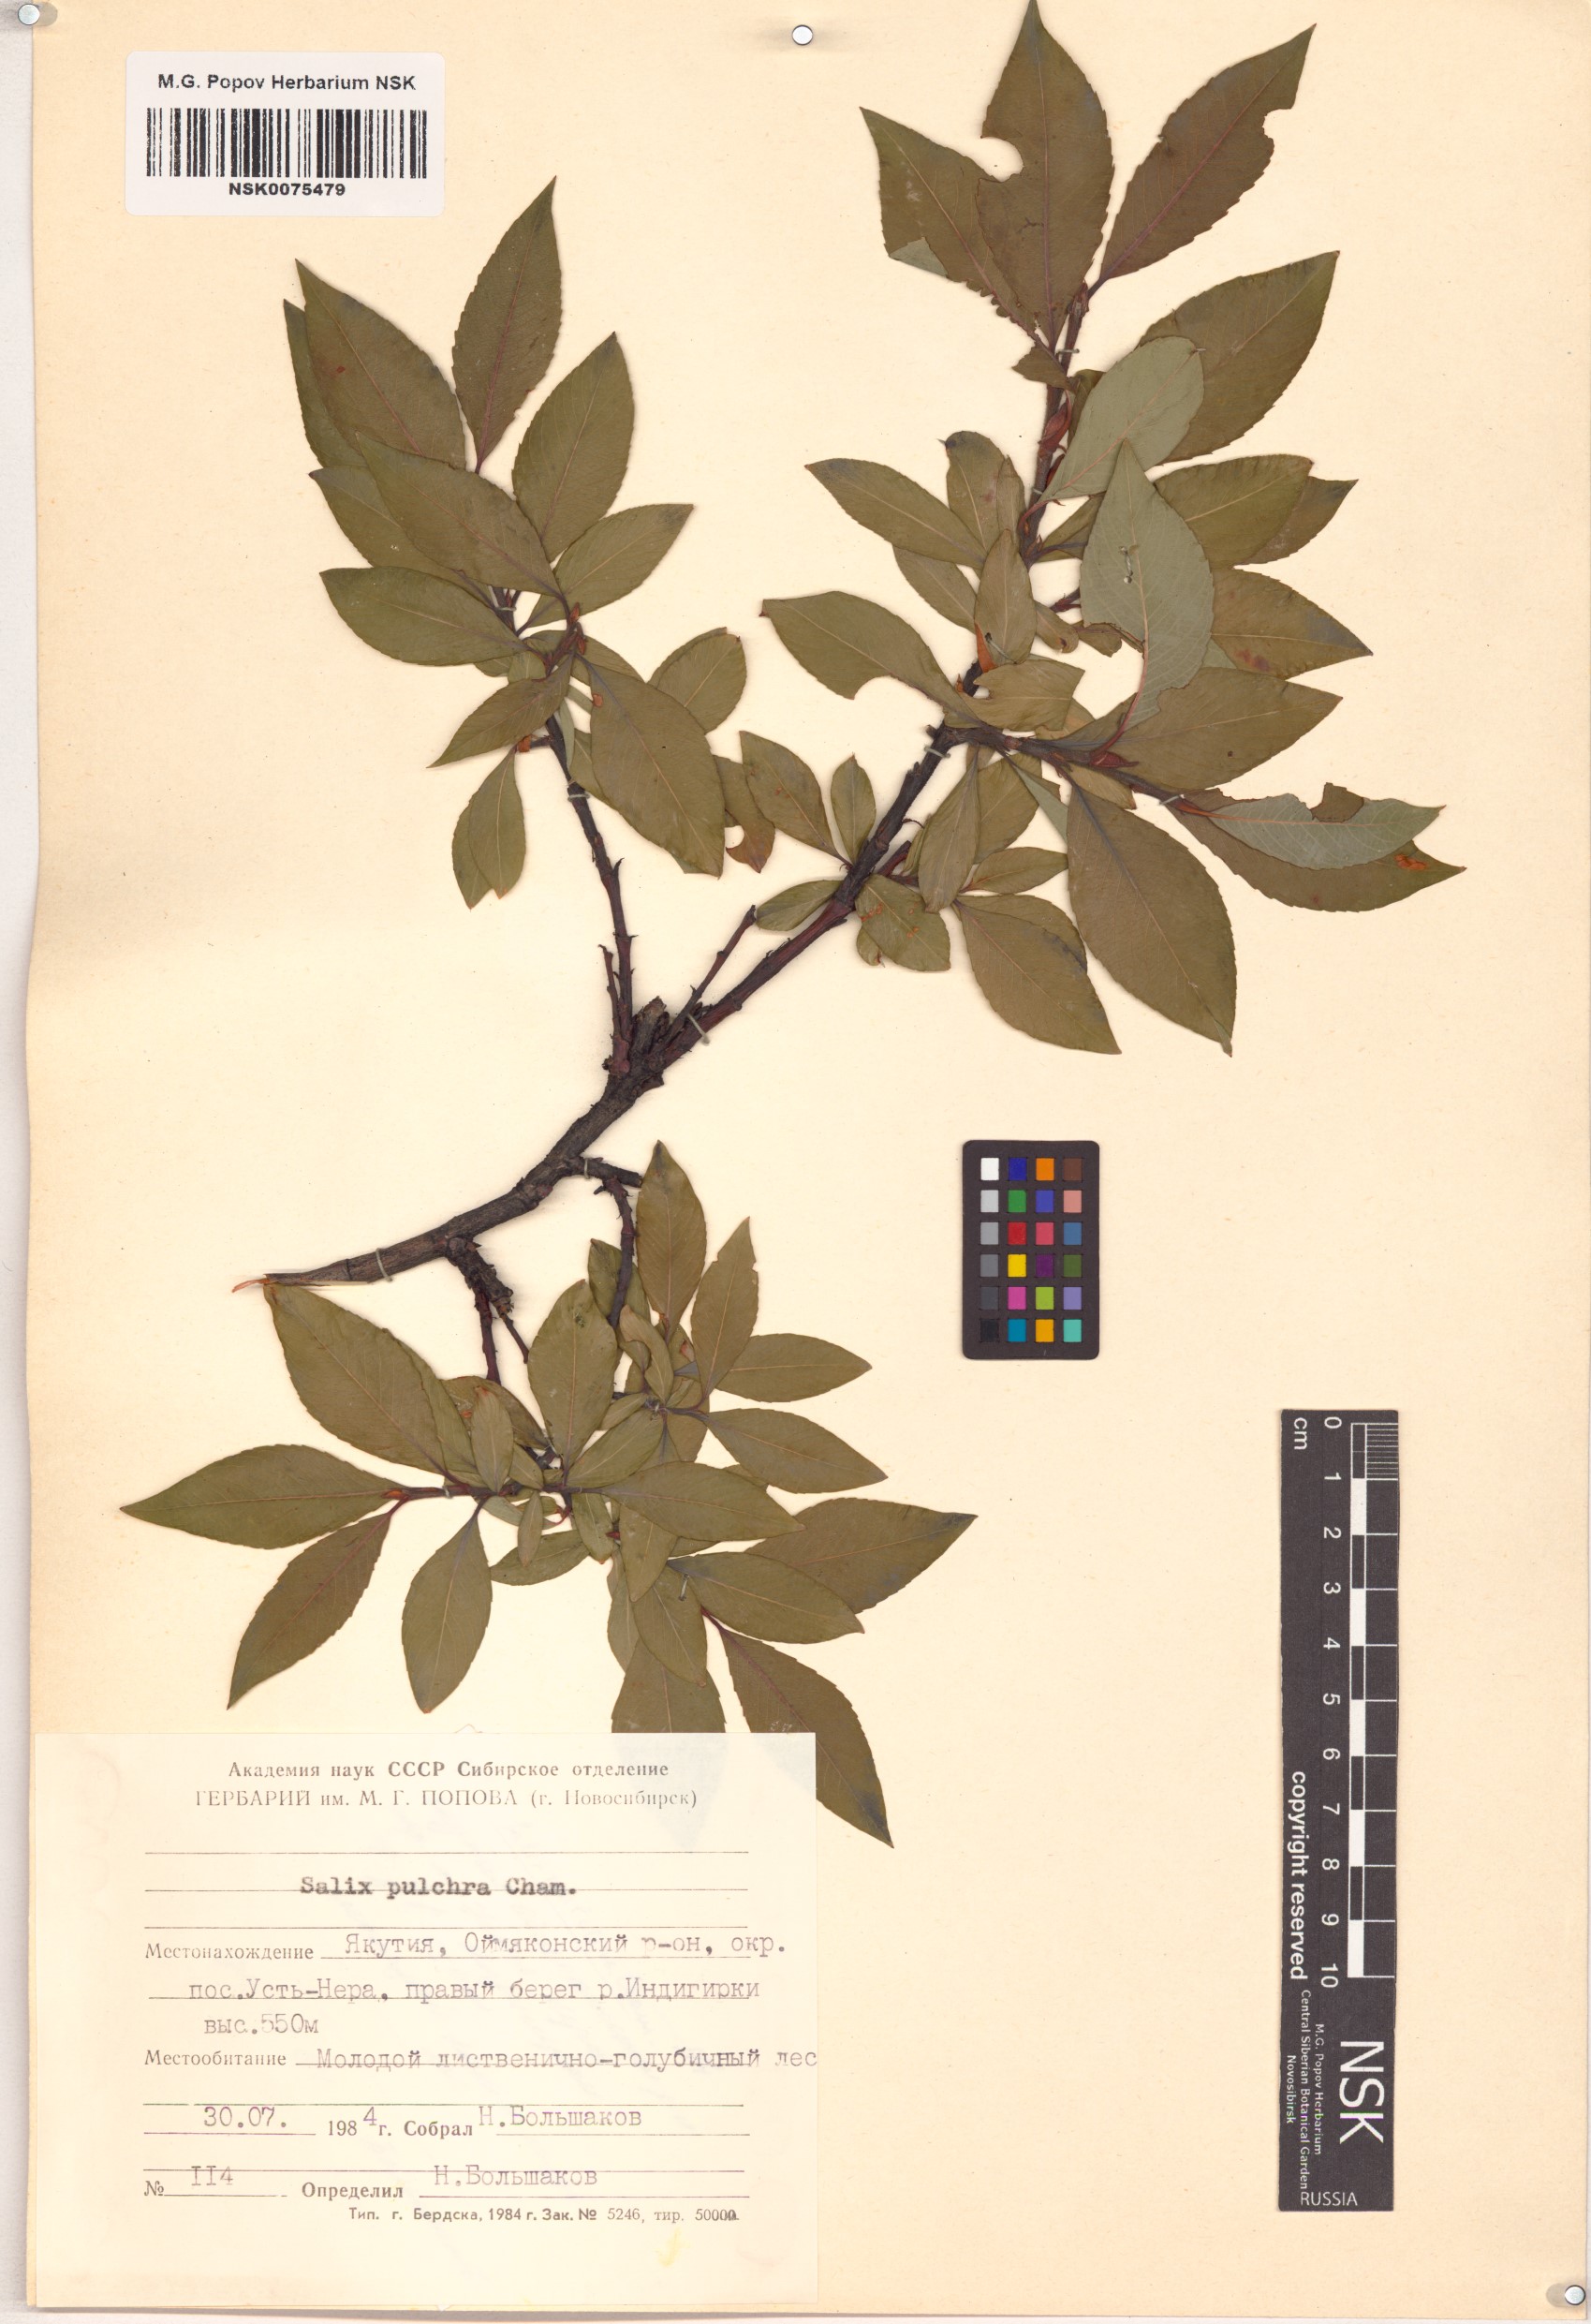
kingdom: Plantae
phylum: Tracheophyta
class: Magnoliopsida
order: Malpighiales
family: Salicaceae
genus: Salix
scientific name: Salix pulchra
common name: Diamond-leaved willow
